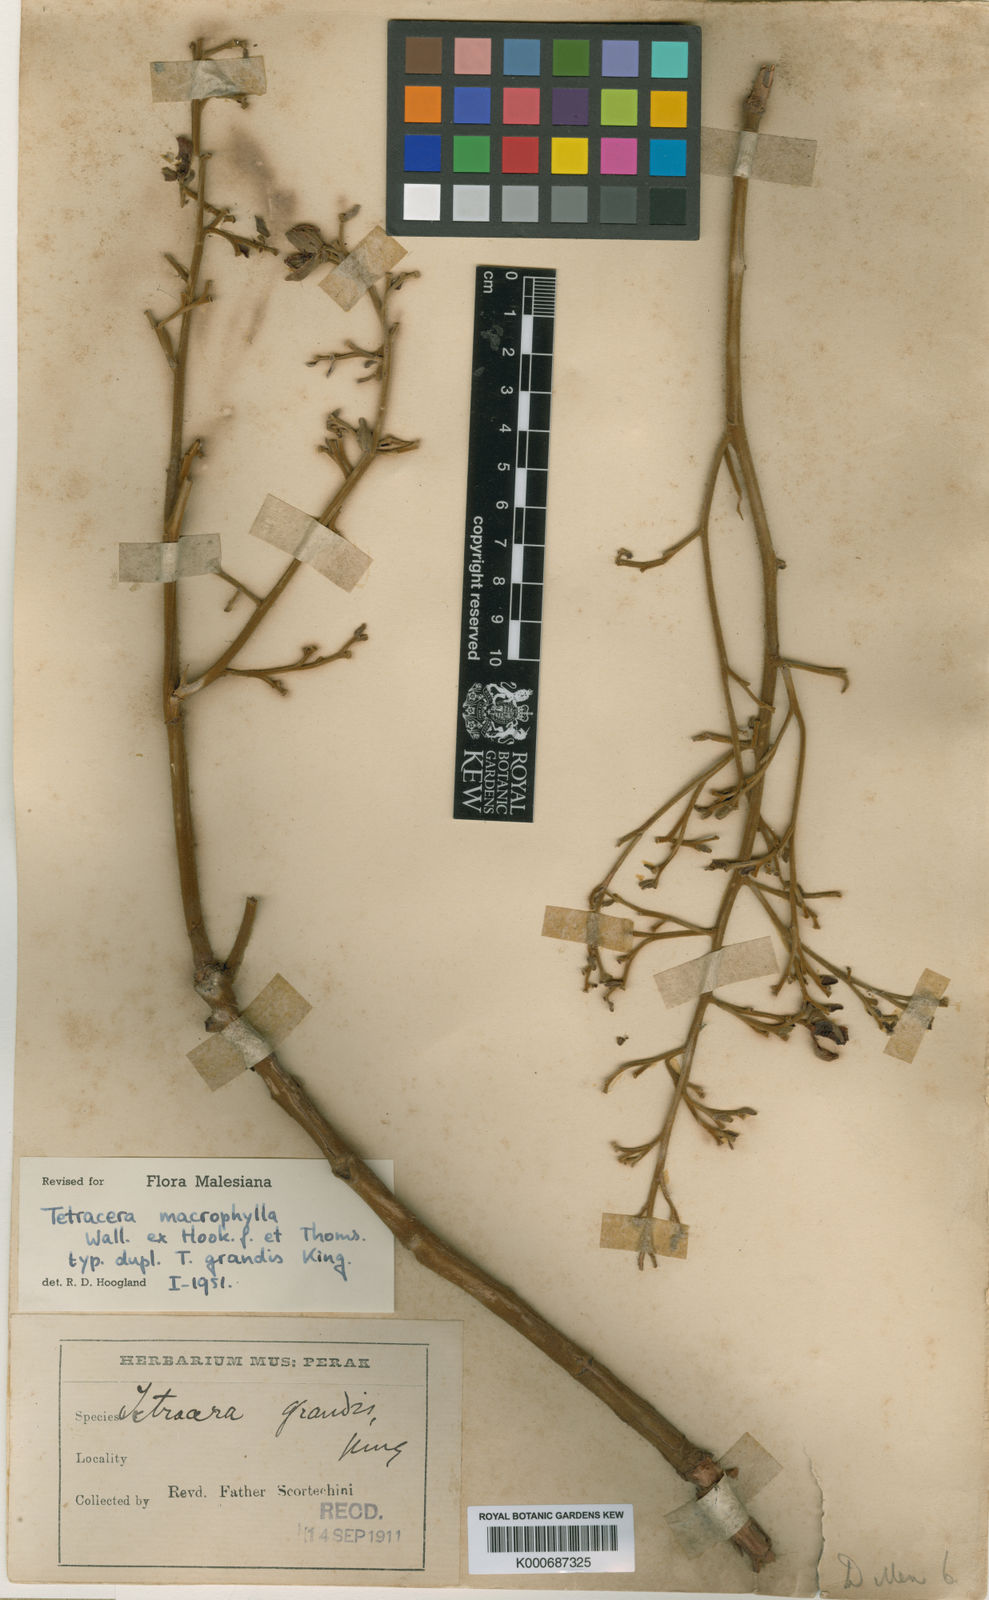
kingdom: Plantae
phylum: Tracheophyta
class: Magnoliopsida
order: Dilleniales
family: Dilleniaceae
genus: Tetracera
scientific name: Tetracera macrophylla
